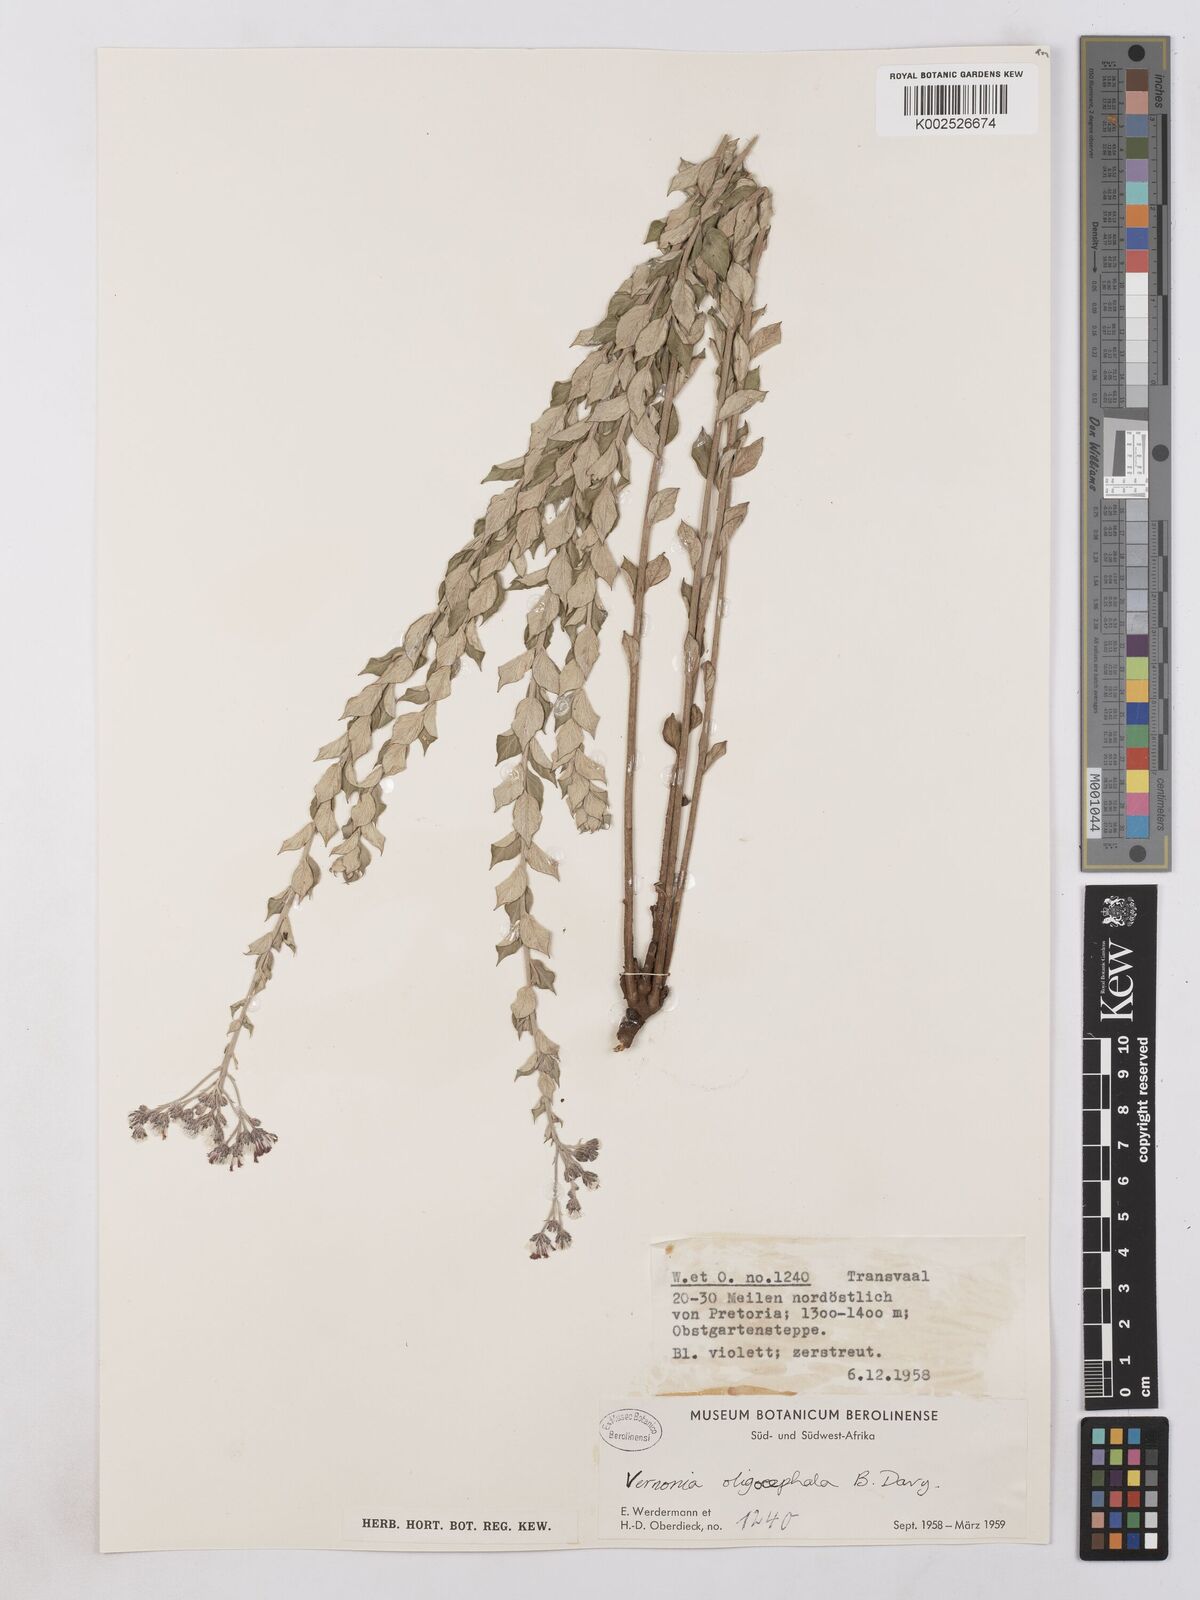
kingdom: Plantae
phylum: Tracheophyta
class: Magnoliopsida
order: Asterales
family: Asteraceae
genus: Hilliardiella
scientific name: Hilliardiella oligocephala
